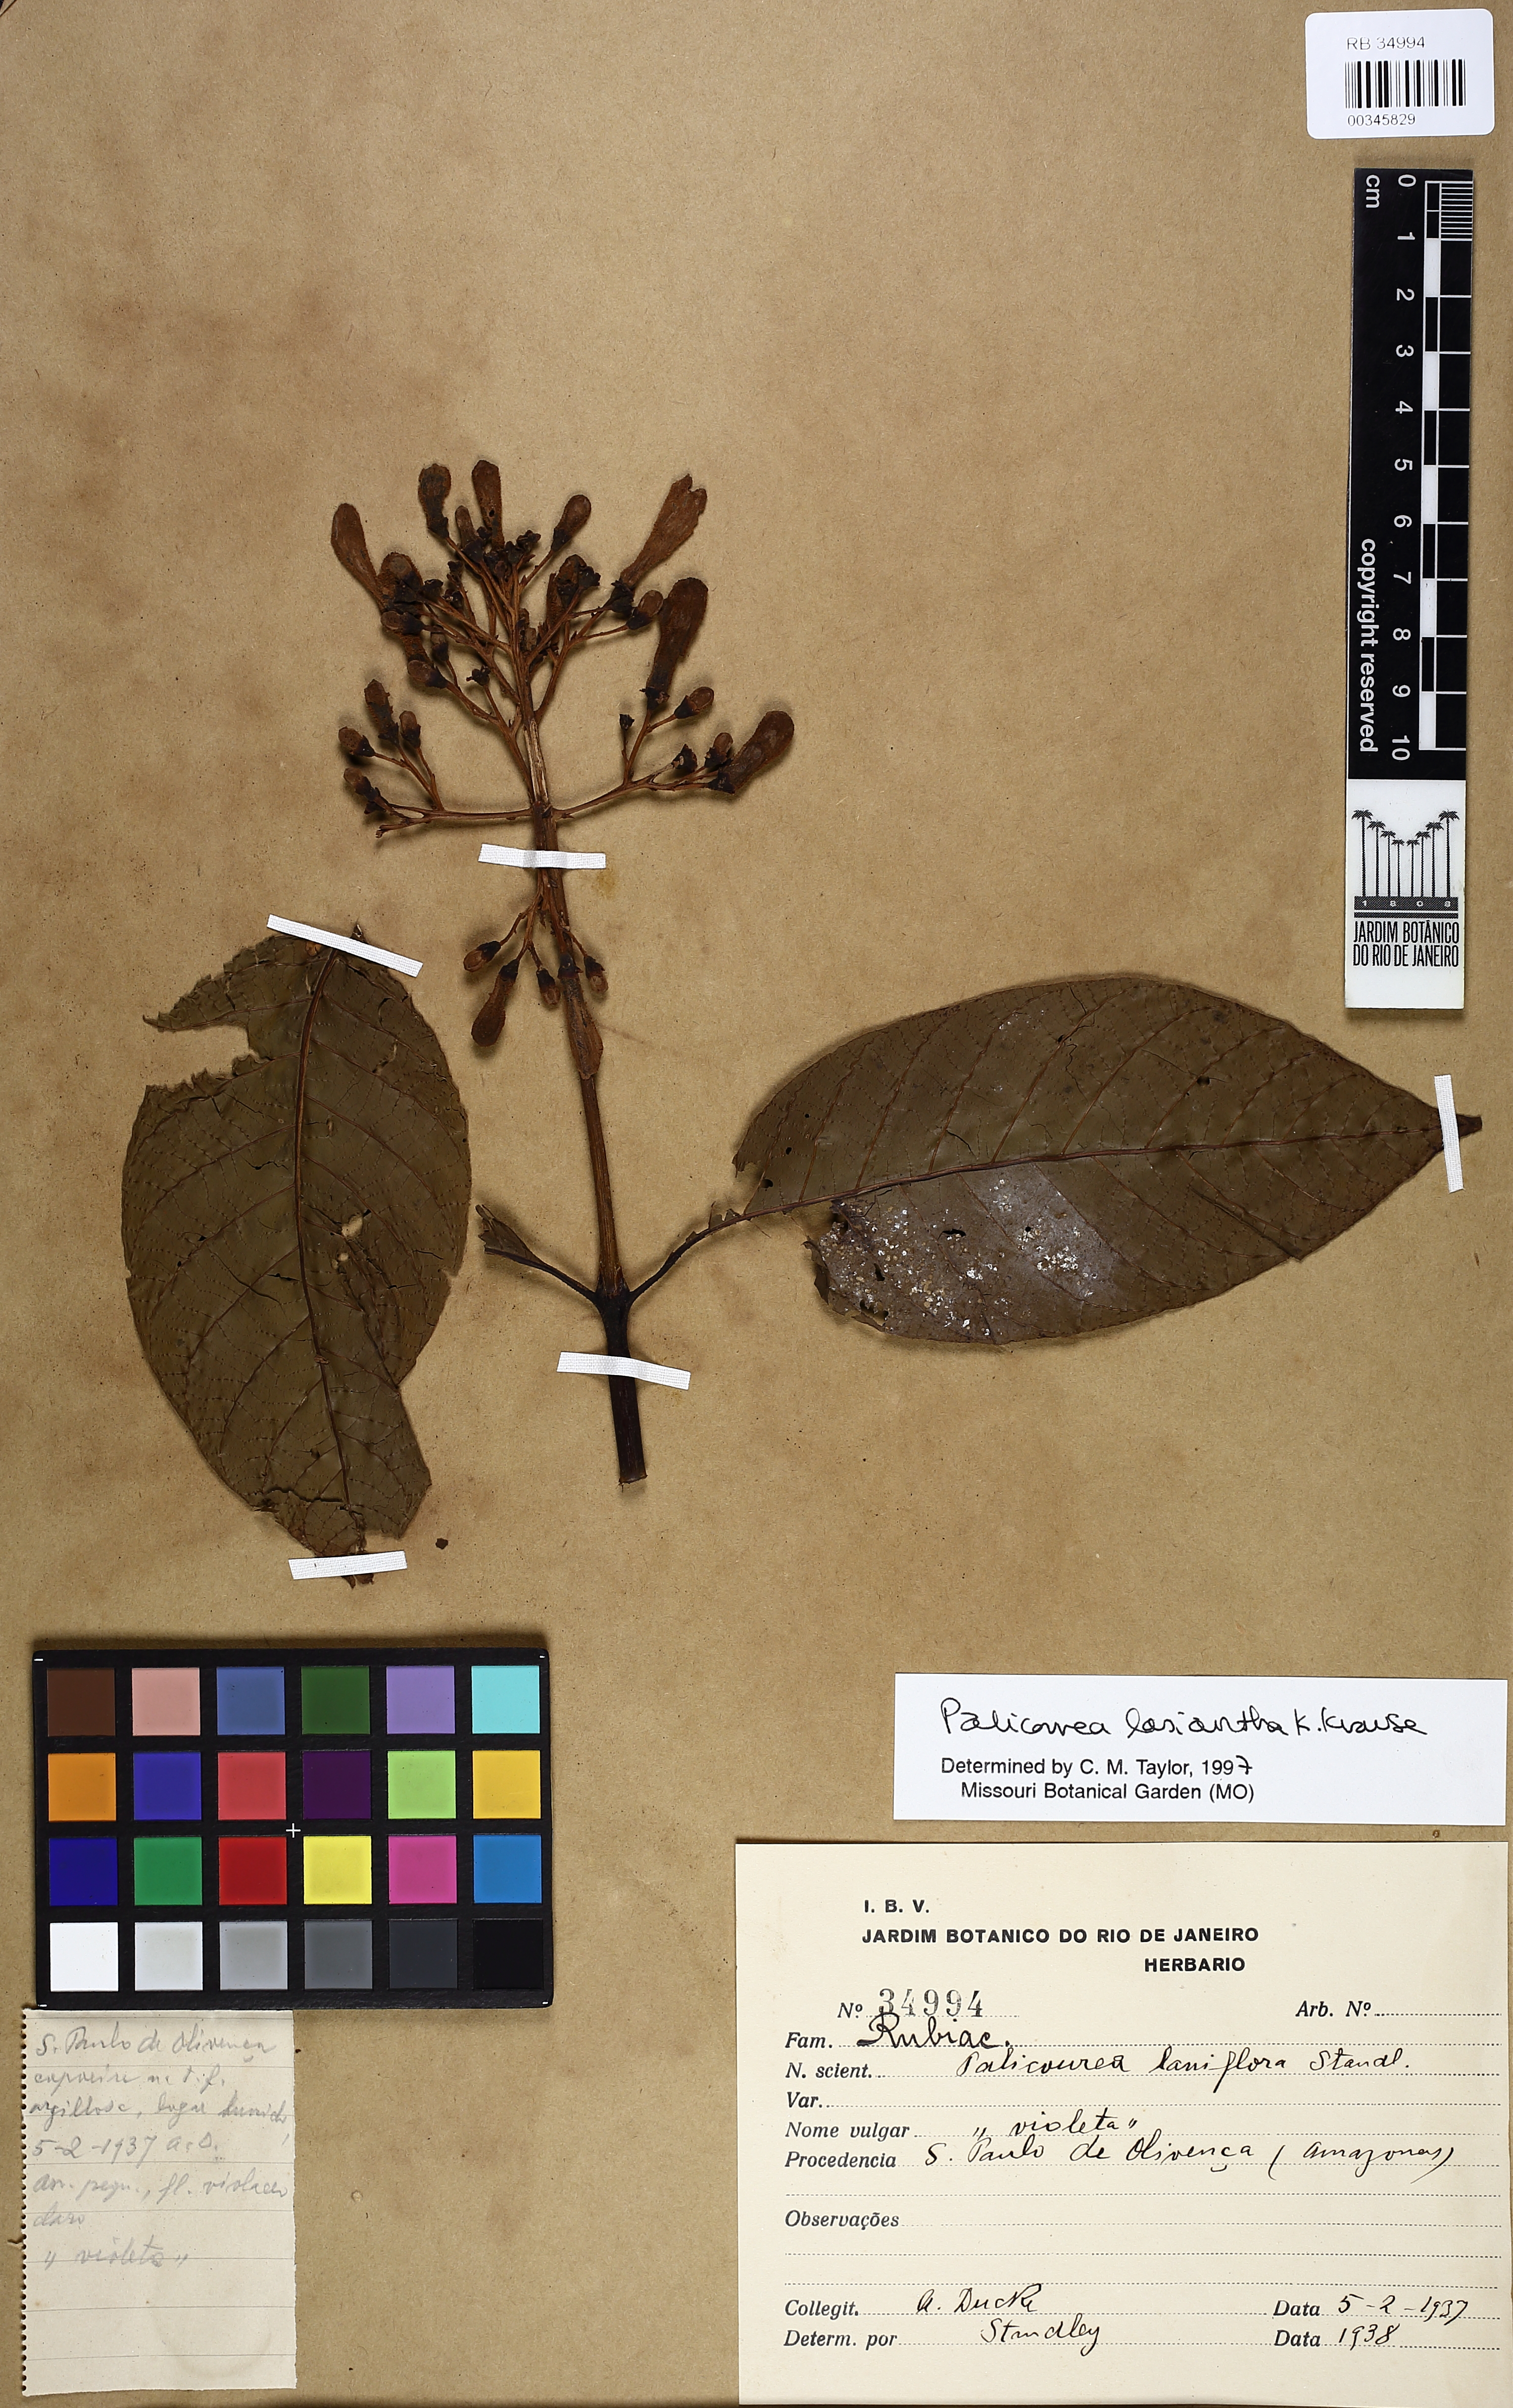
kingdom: Plantae
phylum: Tracheophyta
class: Magnoliopsida
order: Gentianales
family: Rubiaceae
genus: Palicourea
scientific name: Palicourea lasiantha
